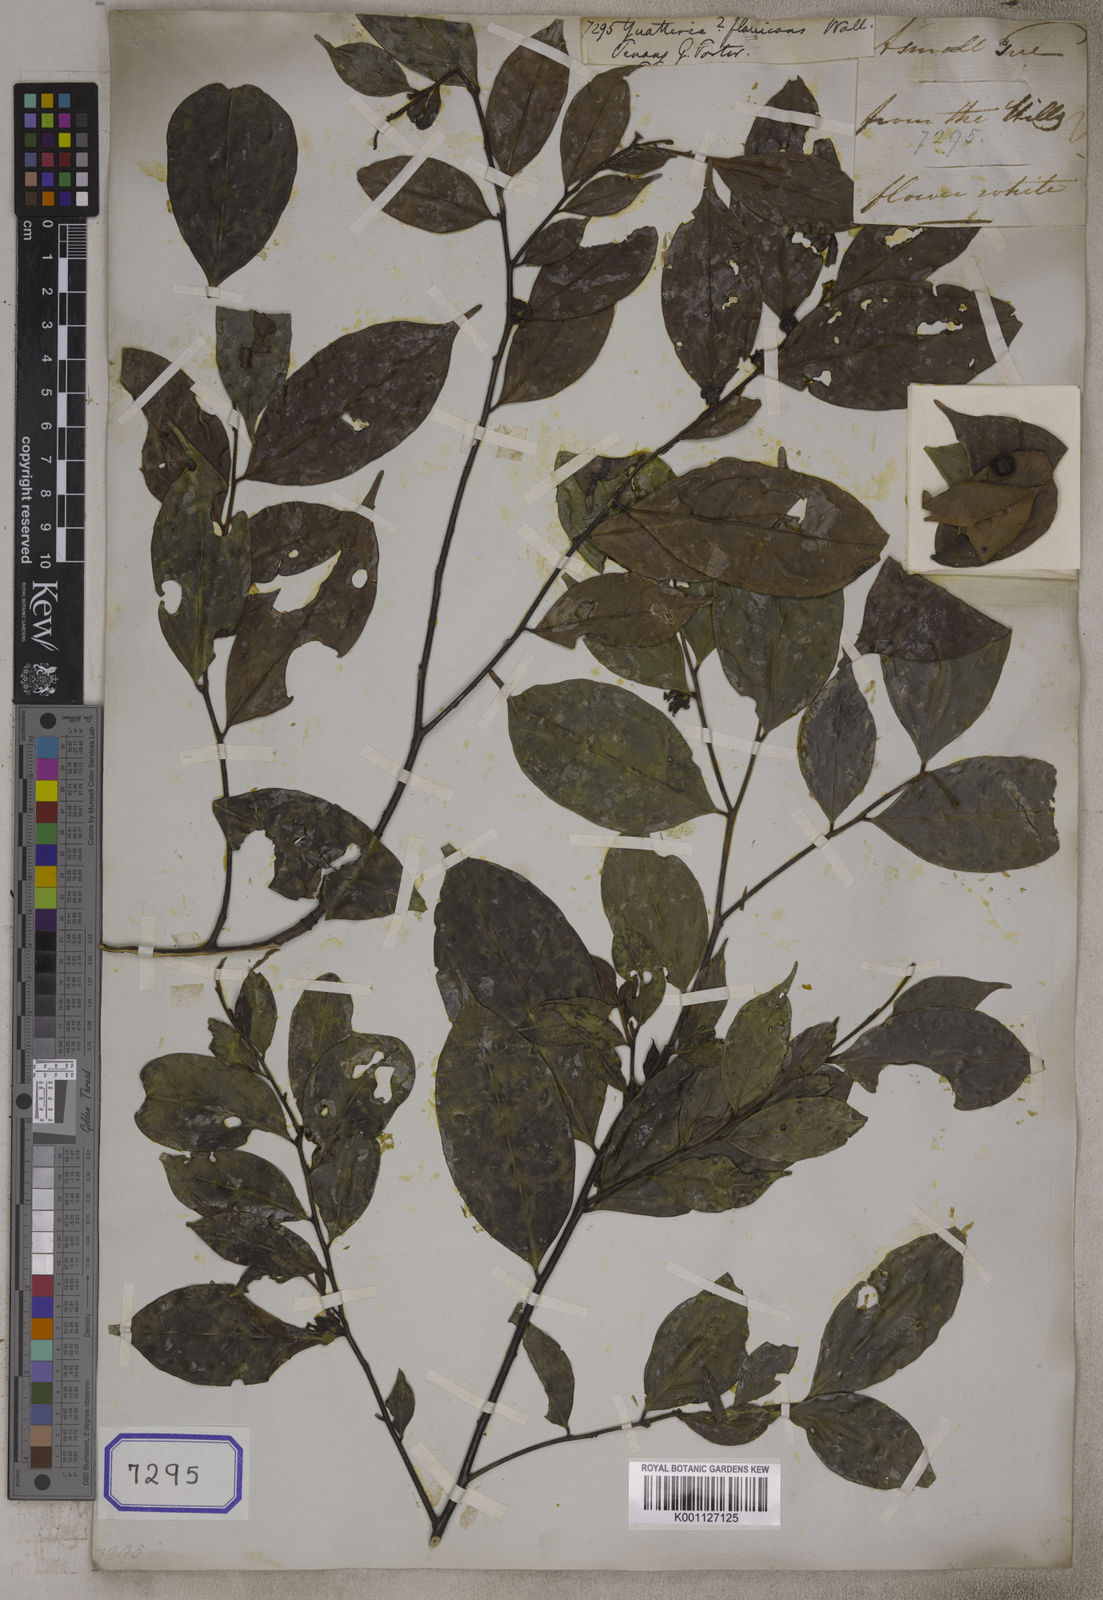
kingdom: Plantae
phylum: Tracheophyta
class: Magnoliopsida
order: Magnoliales
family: Annonaceae
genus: Guatteria
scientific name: Guatteria
